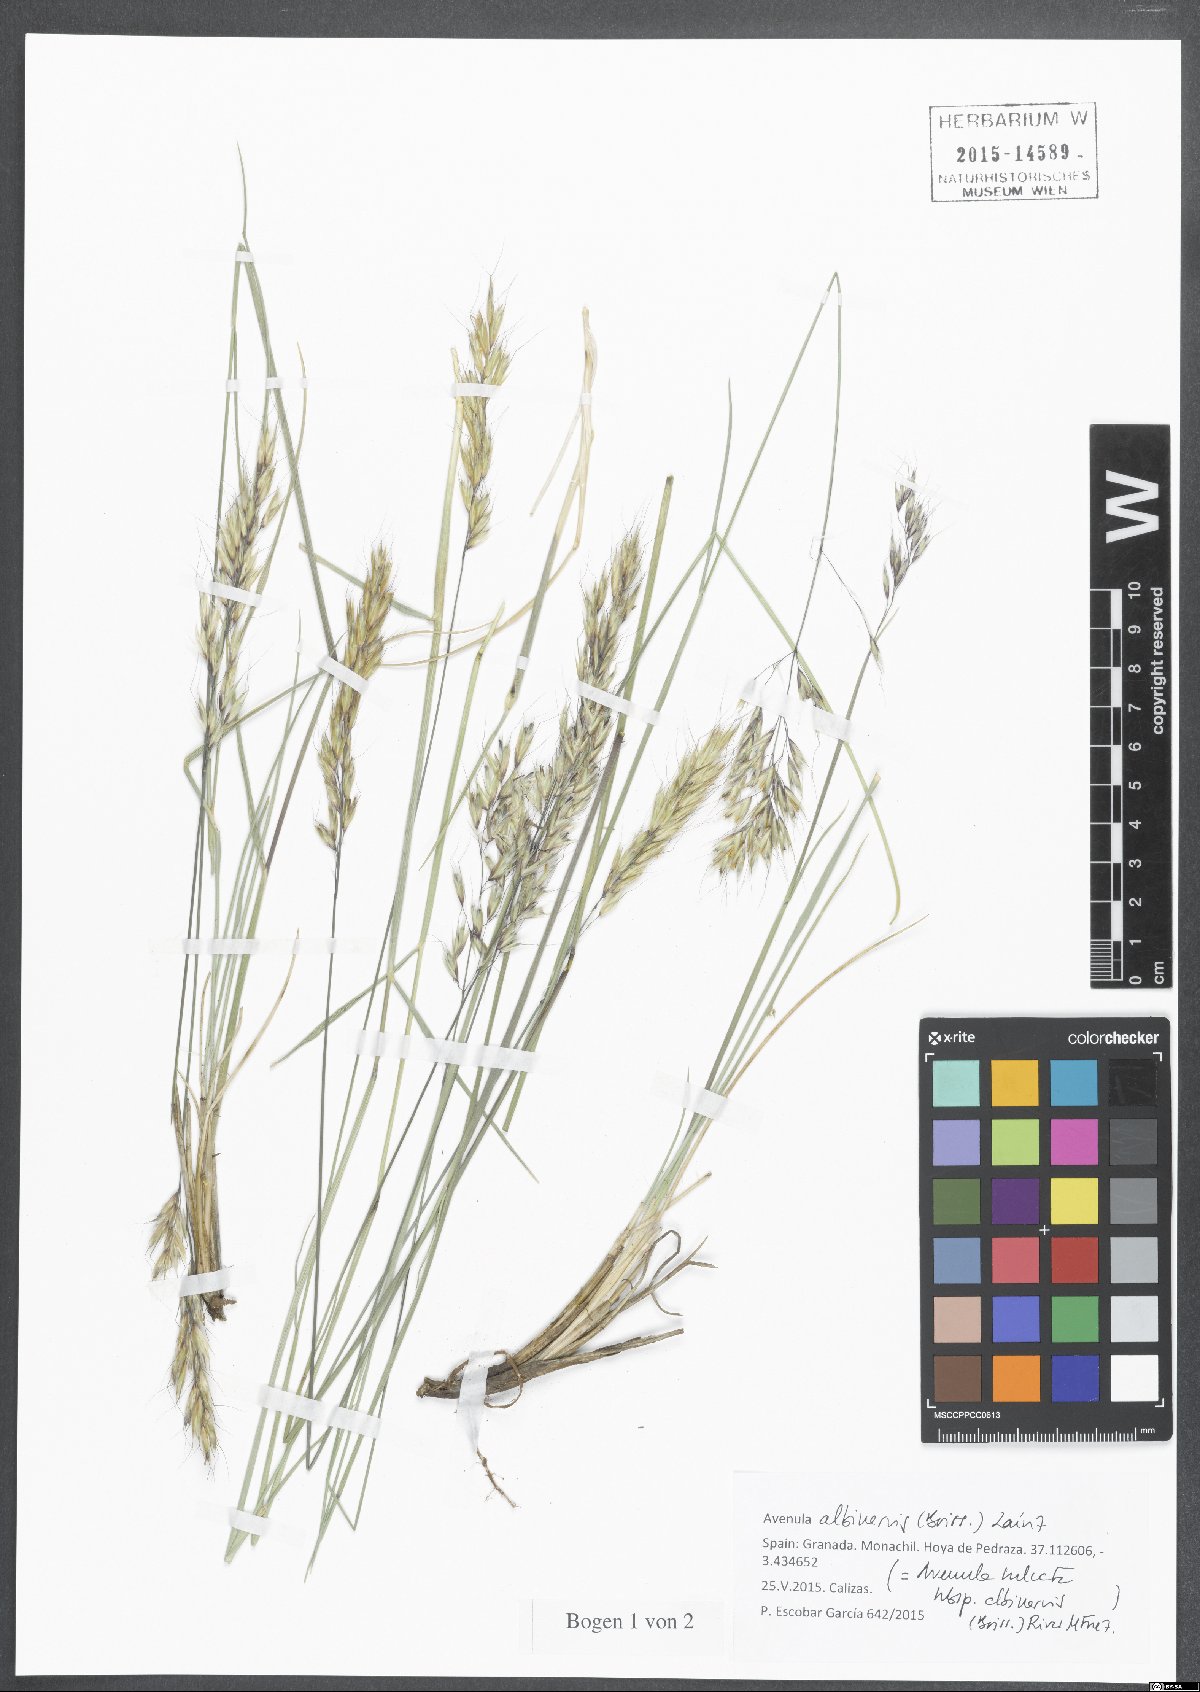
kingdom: Plantae
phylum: Tracheophyta
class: Liliopsida
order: Poales
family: Poaceae
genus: Helictochloa
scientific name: Helictochloa albinervis
